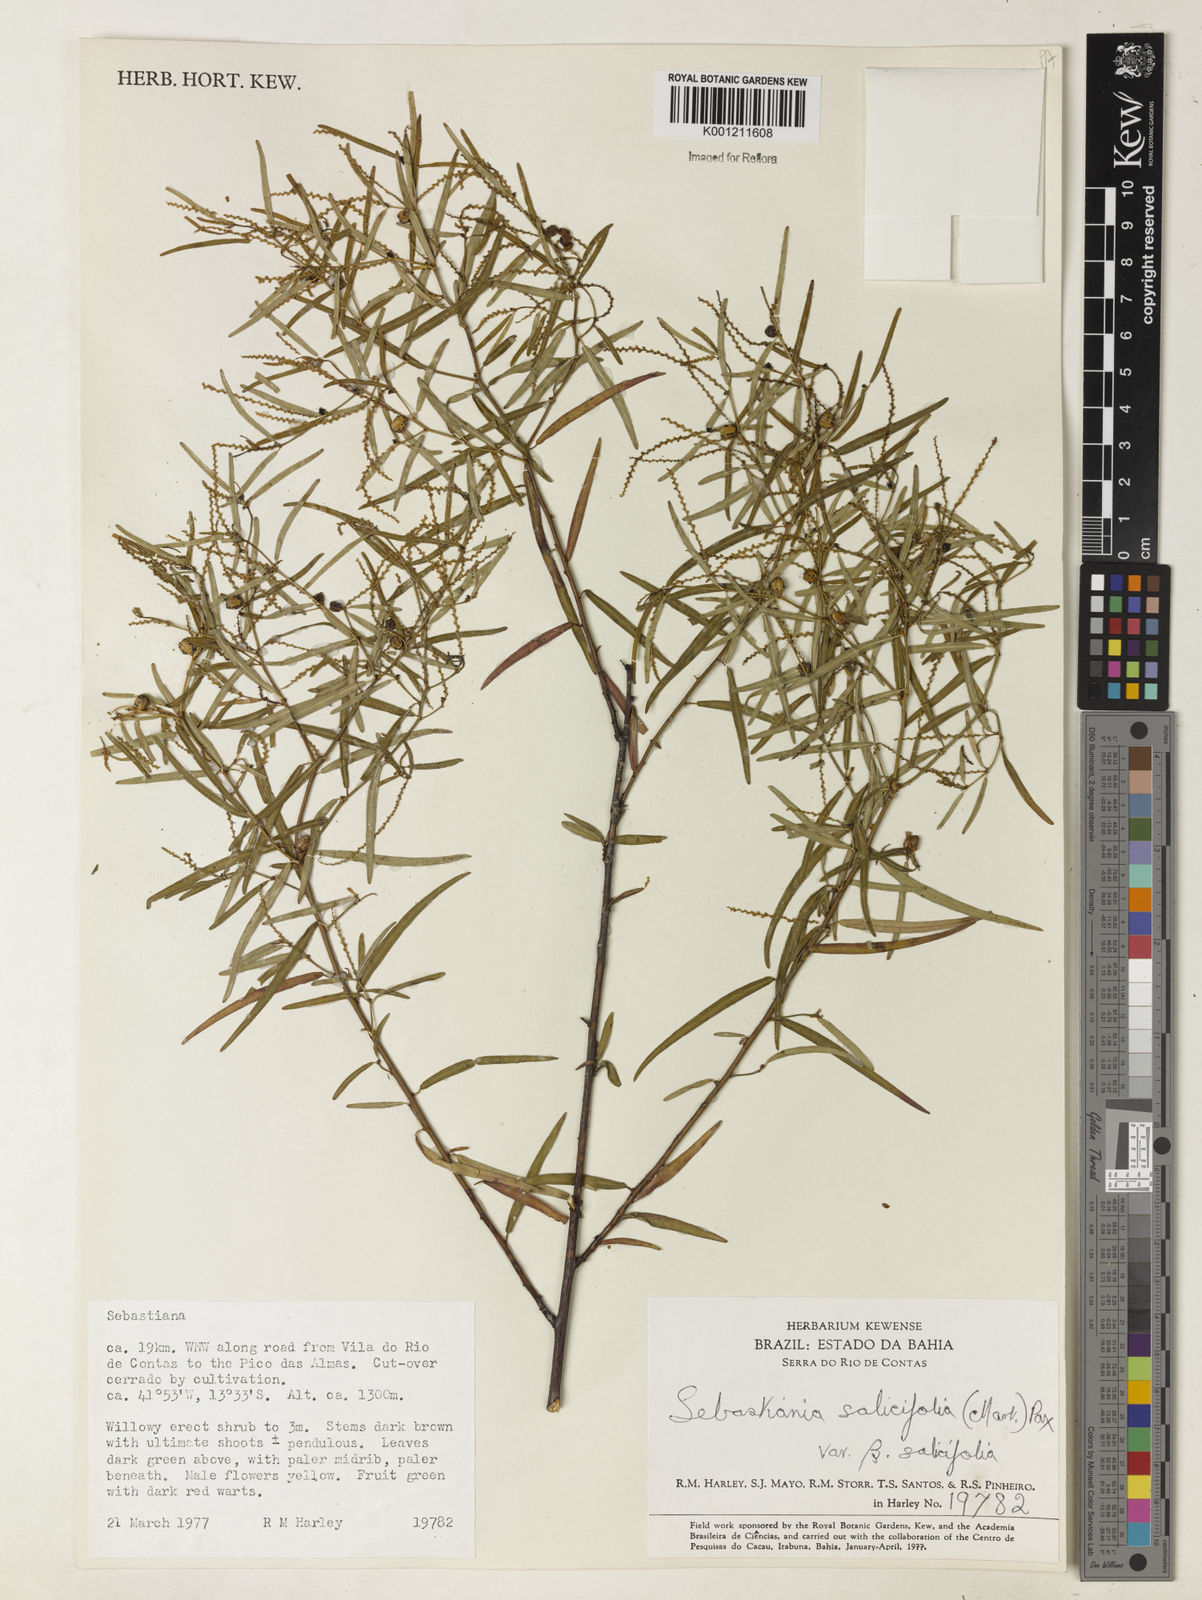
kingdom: Plantae
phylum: Tracheophyta
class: Magnoliopsida
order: Malpighiales
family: Euphorbiaceae
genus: Microstachys
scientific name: Microstachys
